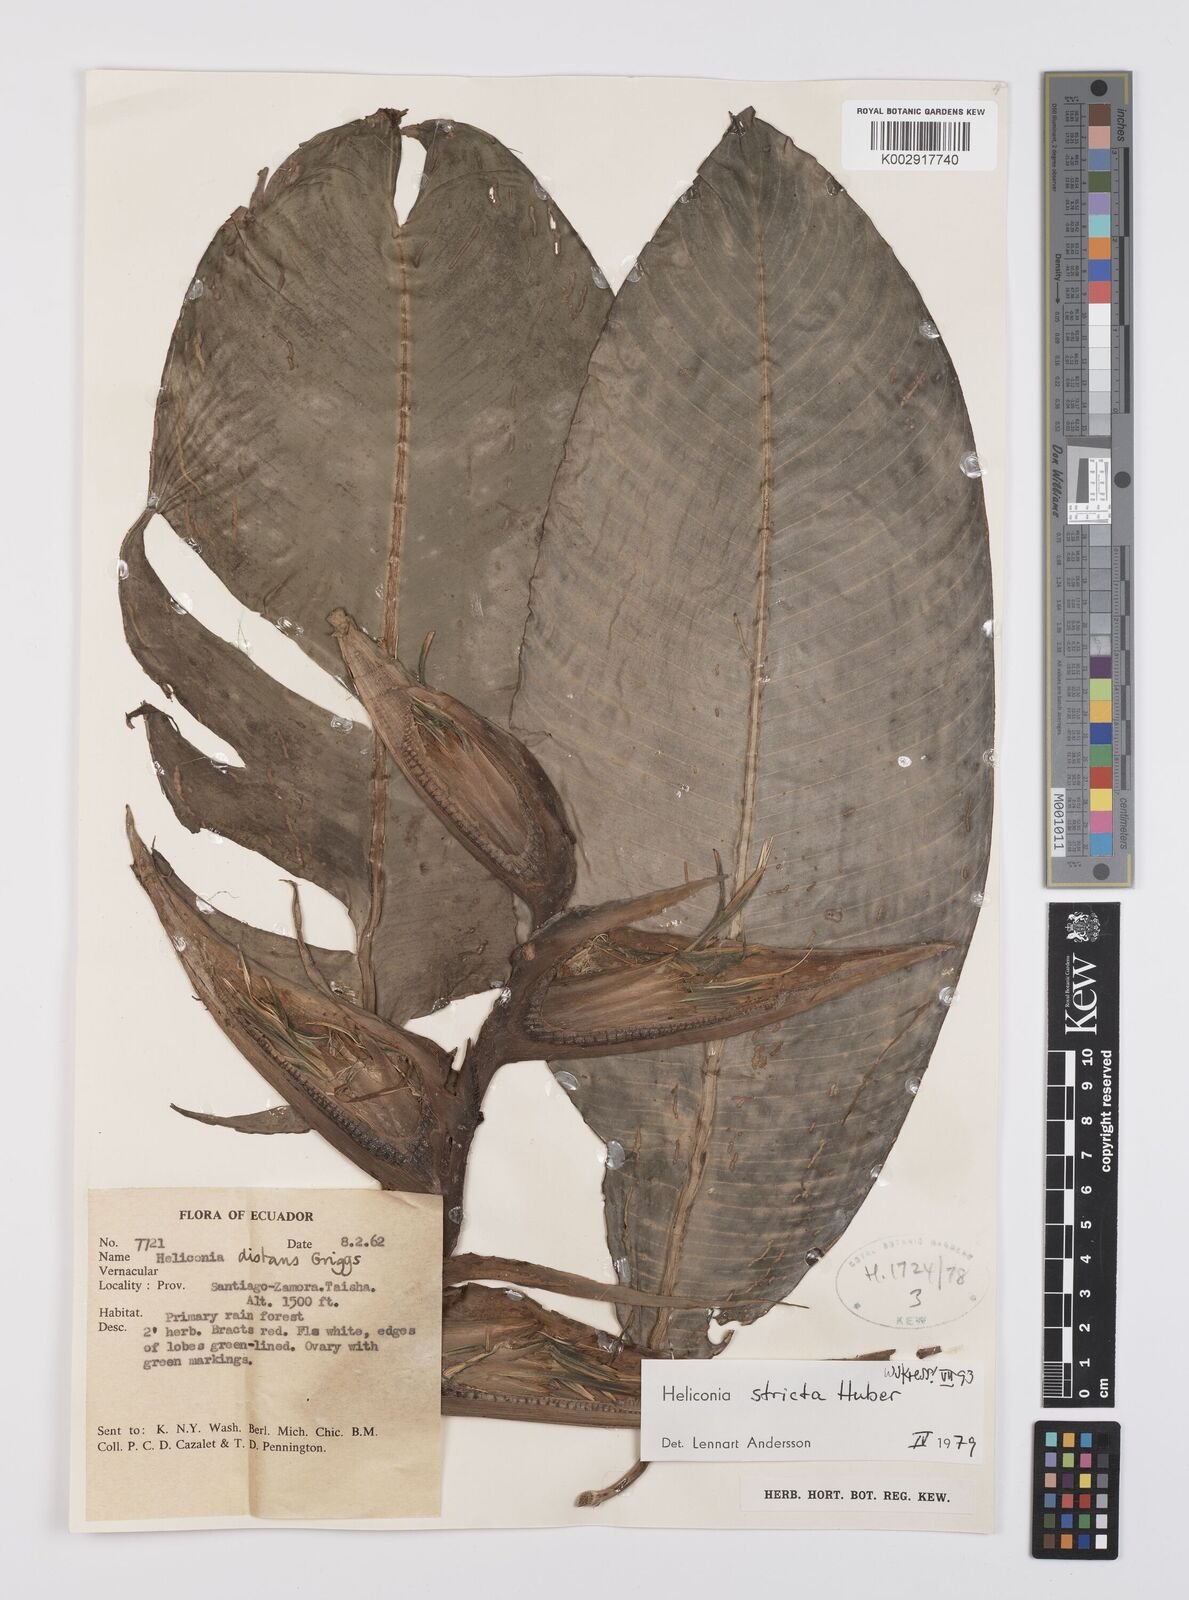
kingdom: Plantae
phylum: Tracheophyta
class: Liliopsida
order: Zingiberales
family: Heliconiaceae
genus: Heliconia
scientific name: Heliconia stricta
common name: Small lobster claw
